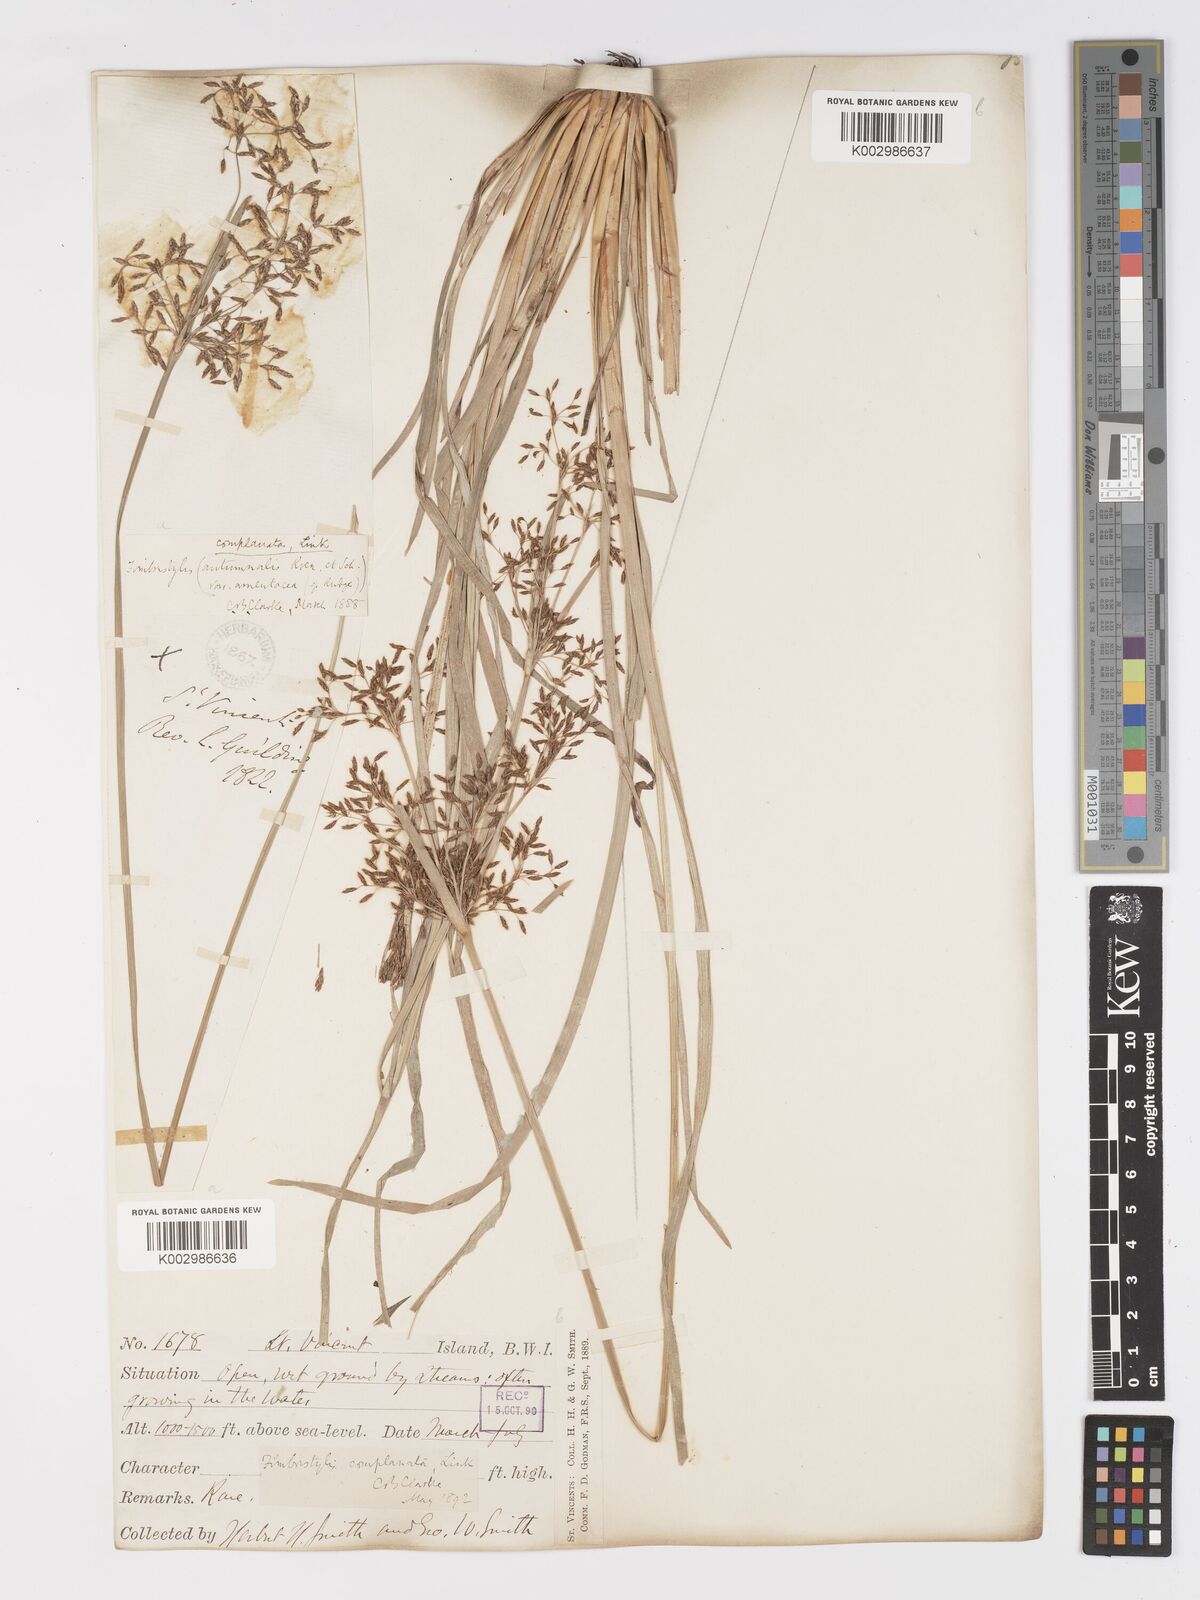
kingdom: Plantae
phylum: Tracheophyta
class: Liliopsida
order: Poales
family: Cyperaceae
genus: Fimbristylis
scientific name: Fimbristylis complanata
